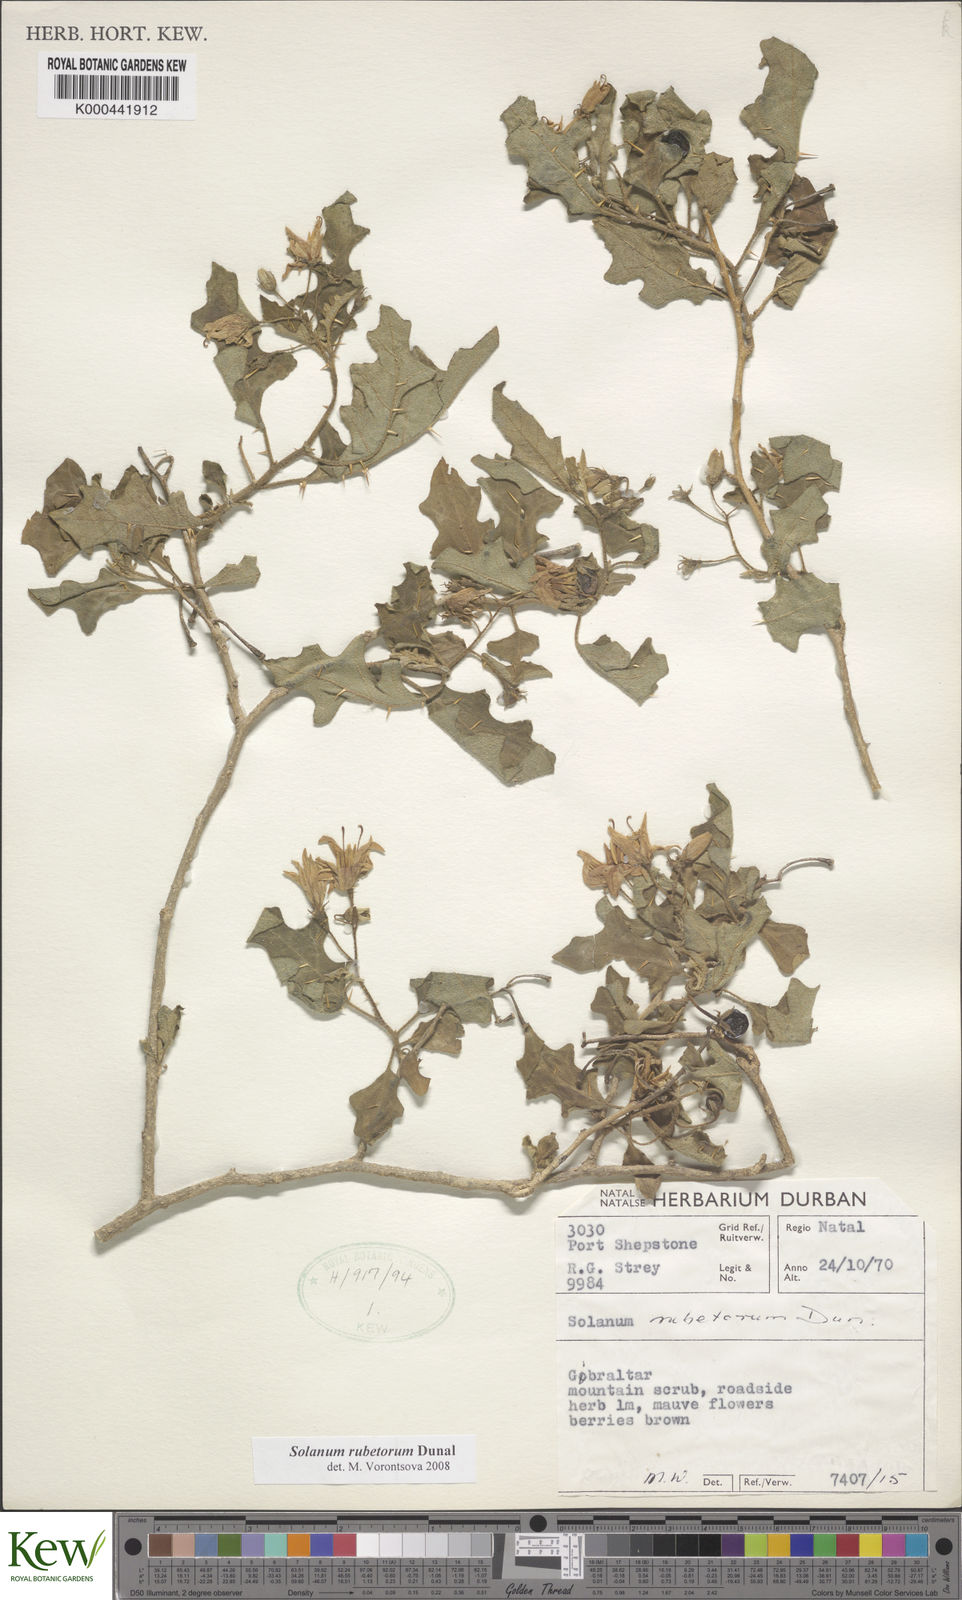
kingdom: Plantae
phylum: Tracheophyta
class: Magnoliopsida
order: Solanales
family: Solanaceae
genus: Solanum
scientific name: Solanum rubetorum
